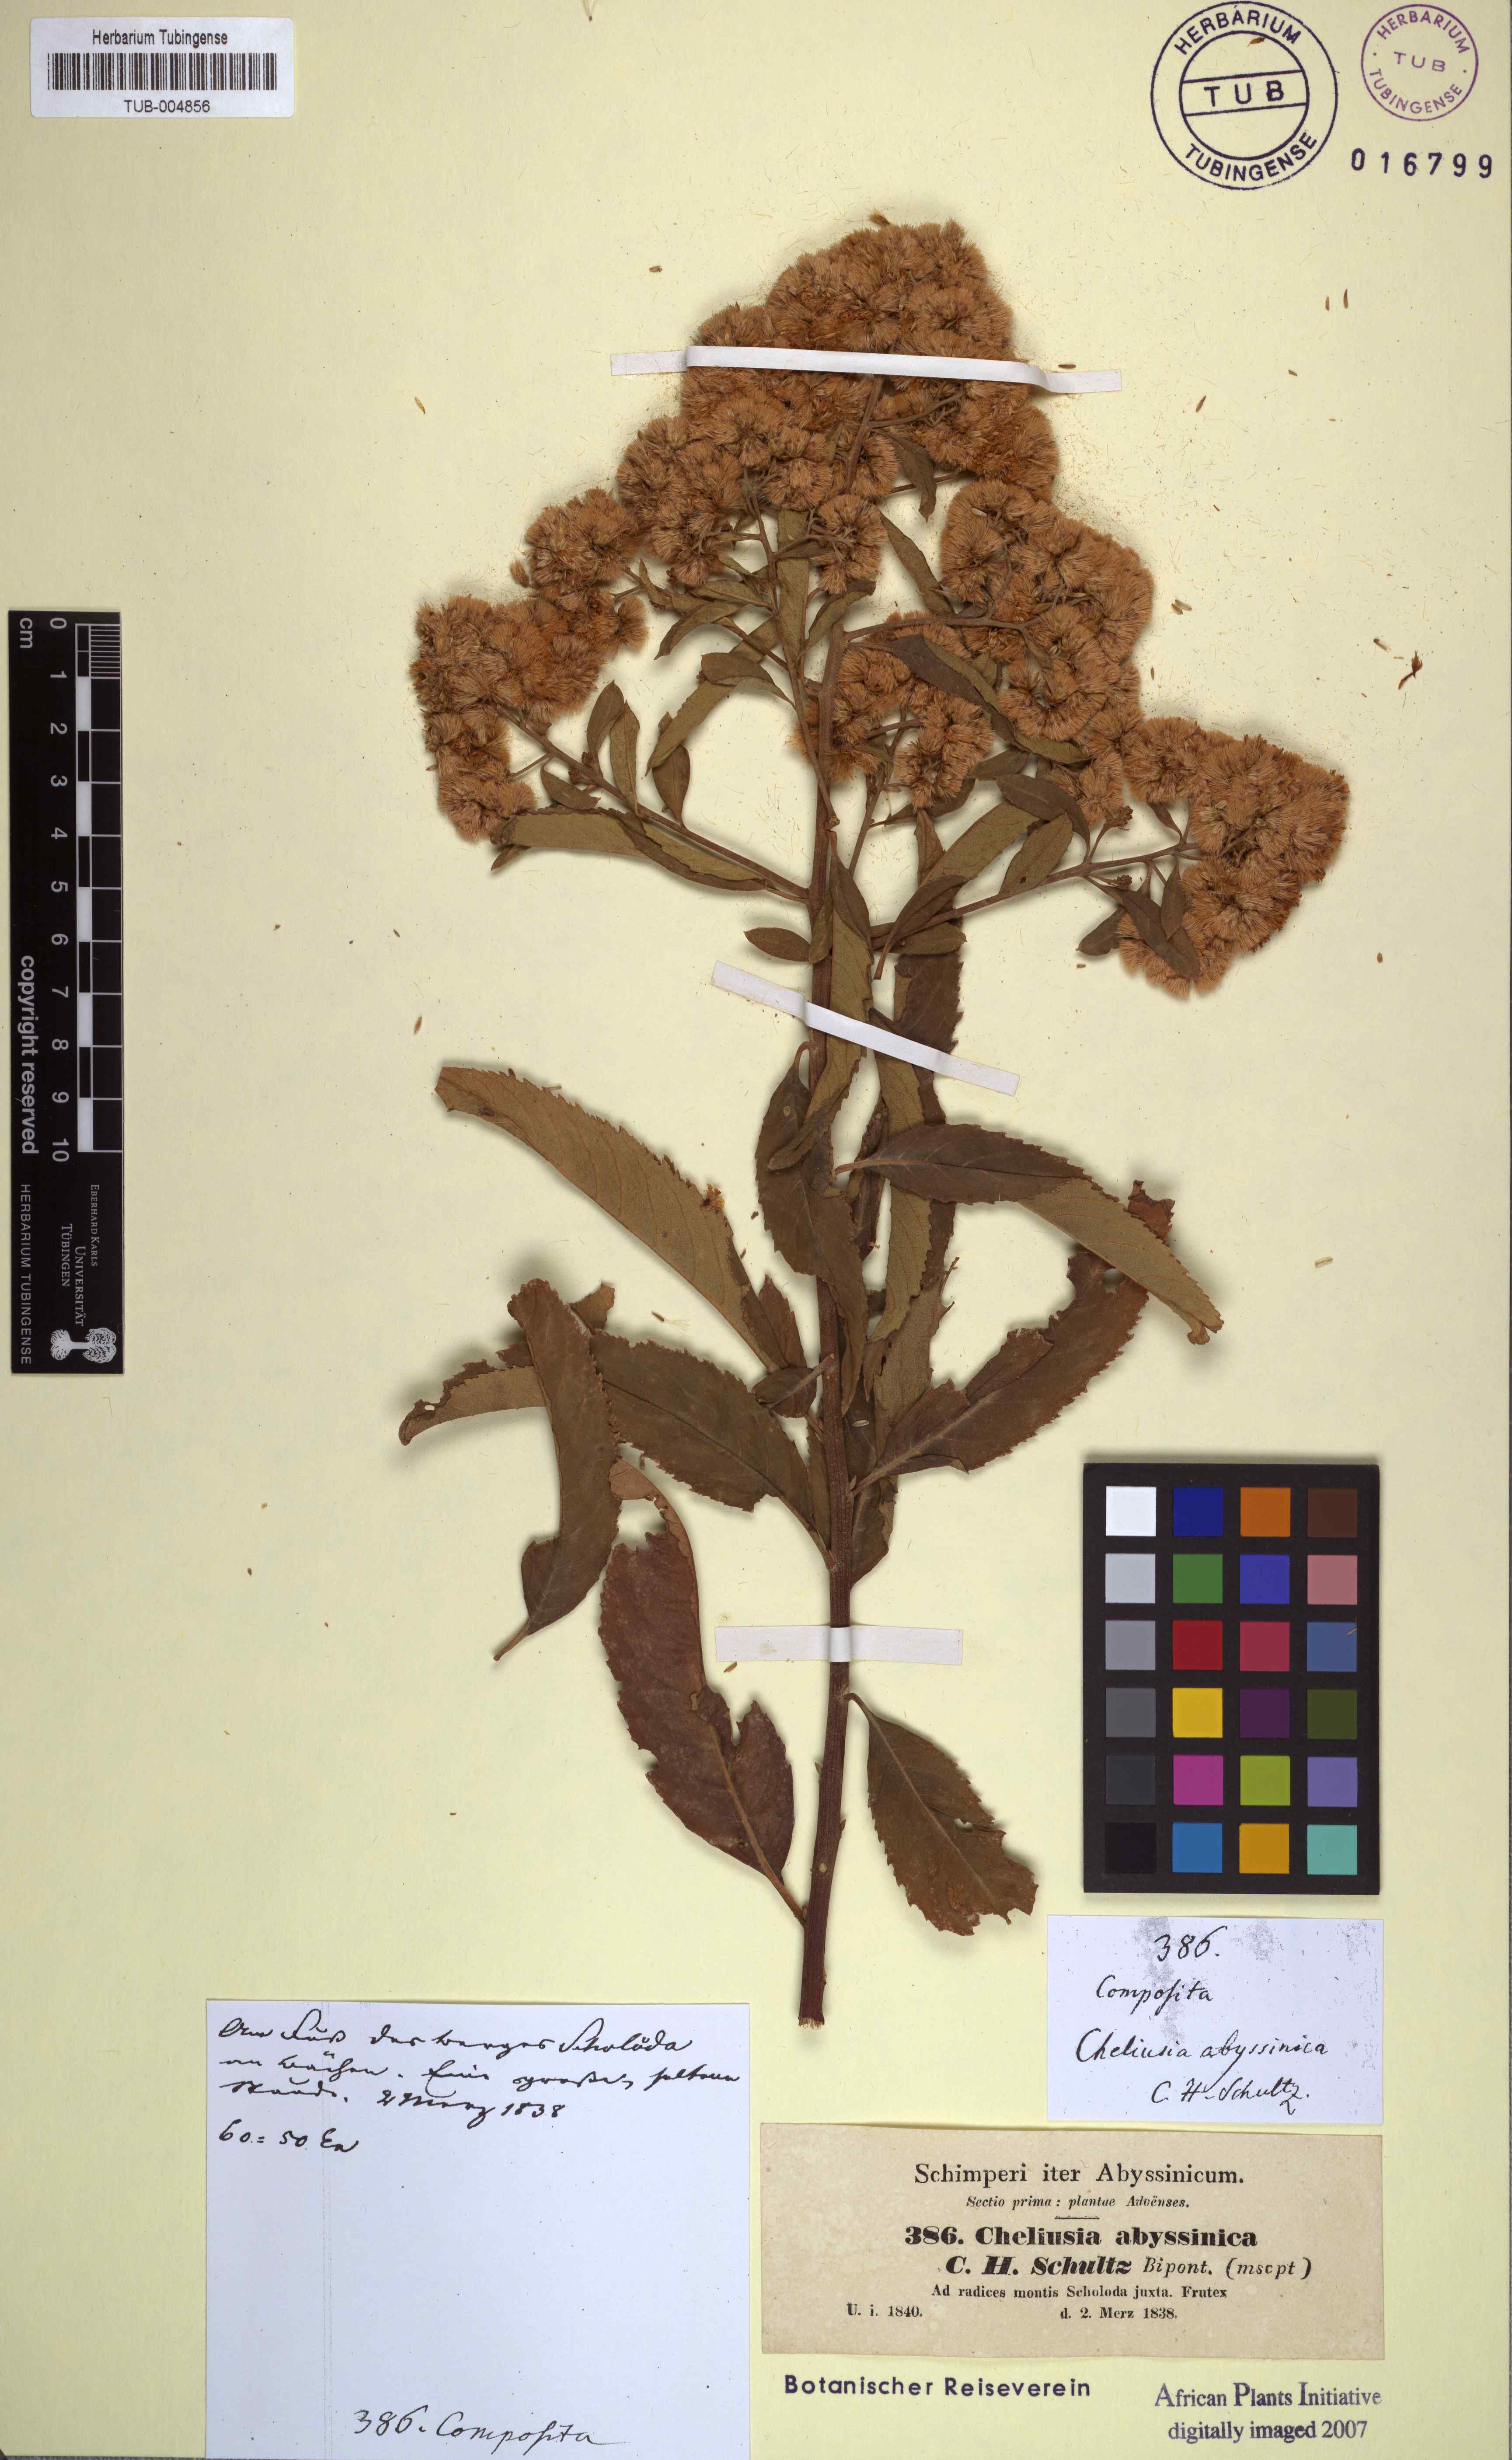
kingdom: Plantae
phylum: Tracheophyta
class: Magnoliopsida
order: Asterales
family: Asteraceae
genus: Gymnanthemum
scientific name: Gymnanthemum amygdalinum
